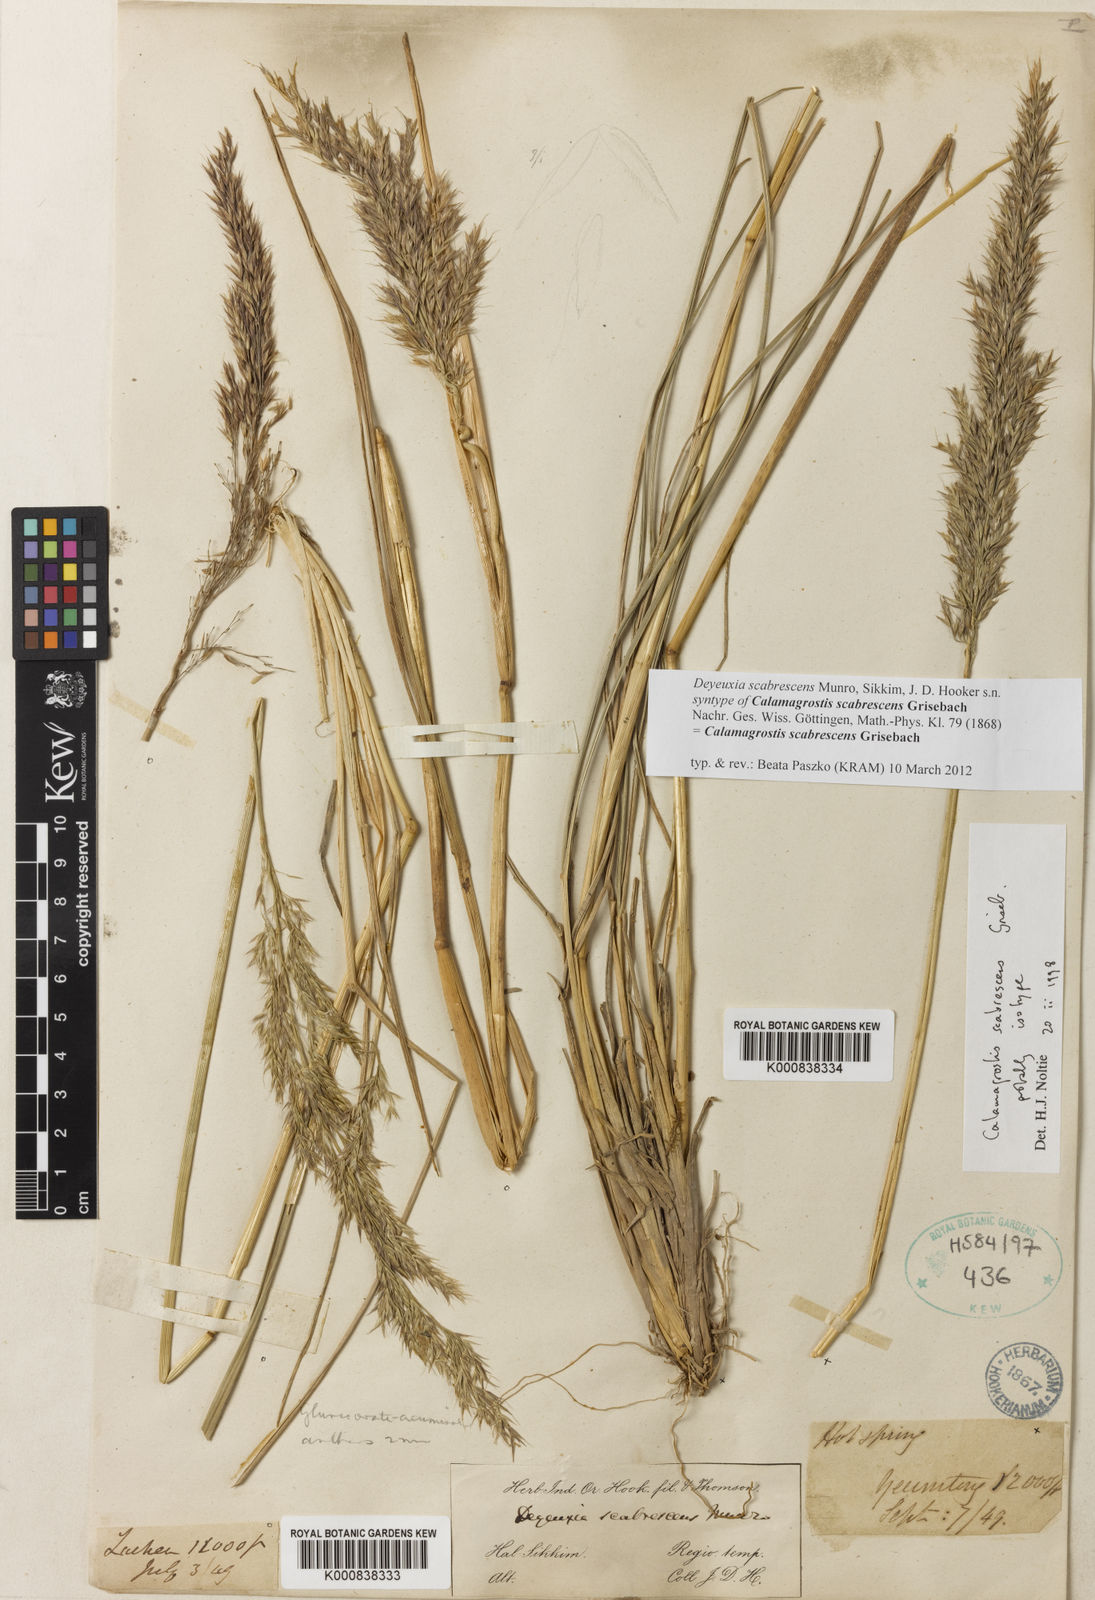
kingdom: Plantae
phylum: Tracheophyta
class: Liliopsida
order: Poales
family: Poaceae
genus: Calamagrostis
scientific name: Calamagrostis scabrescens
